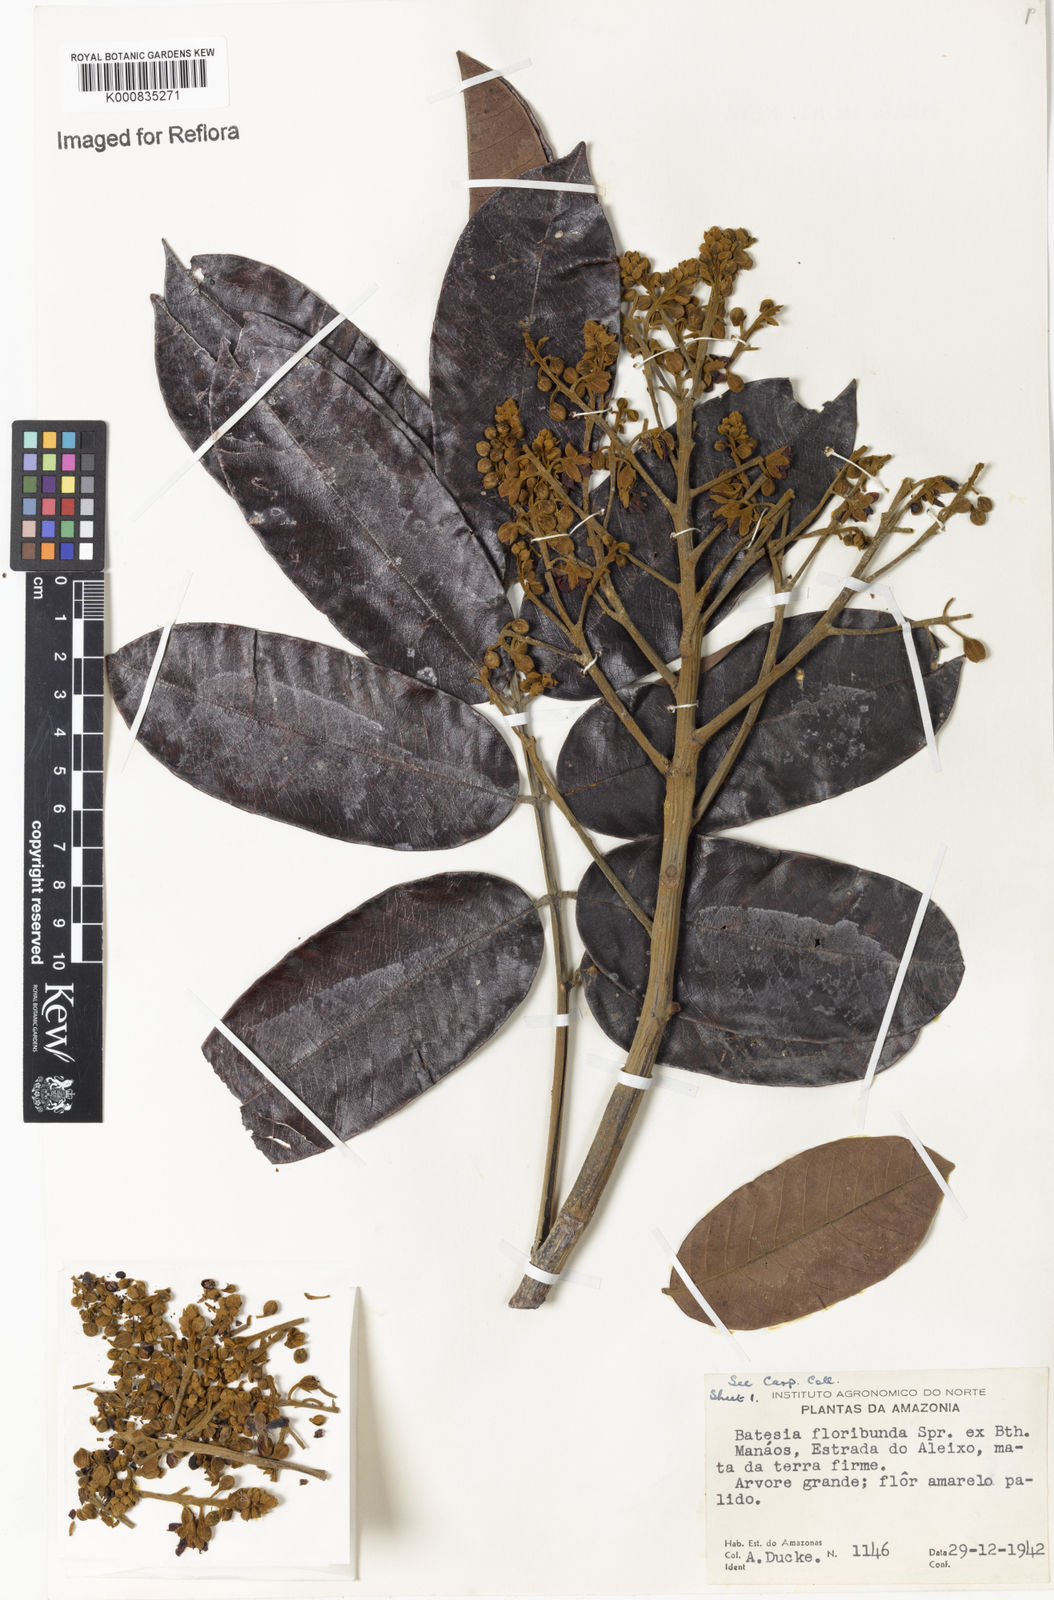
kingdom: Plantae
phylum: Tracheophyta
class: Magnoliopsida
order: Fabales
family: Fabaceae
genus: Batesia
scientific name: Batesia floribunda
